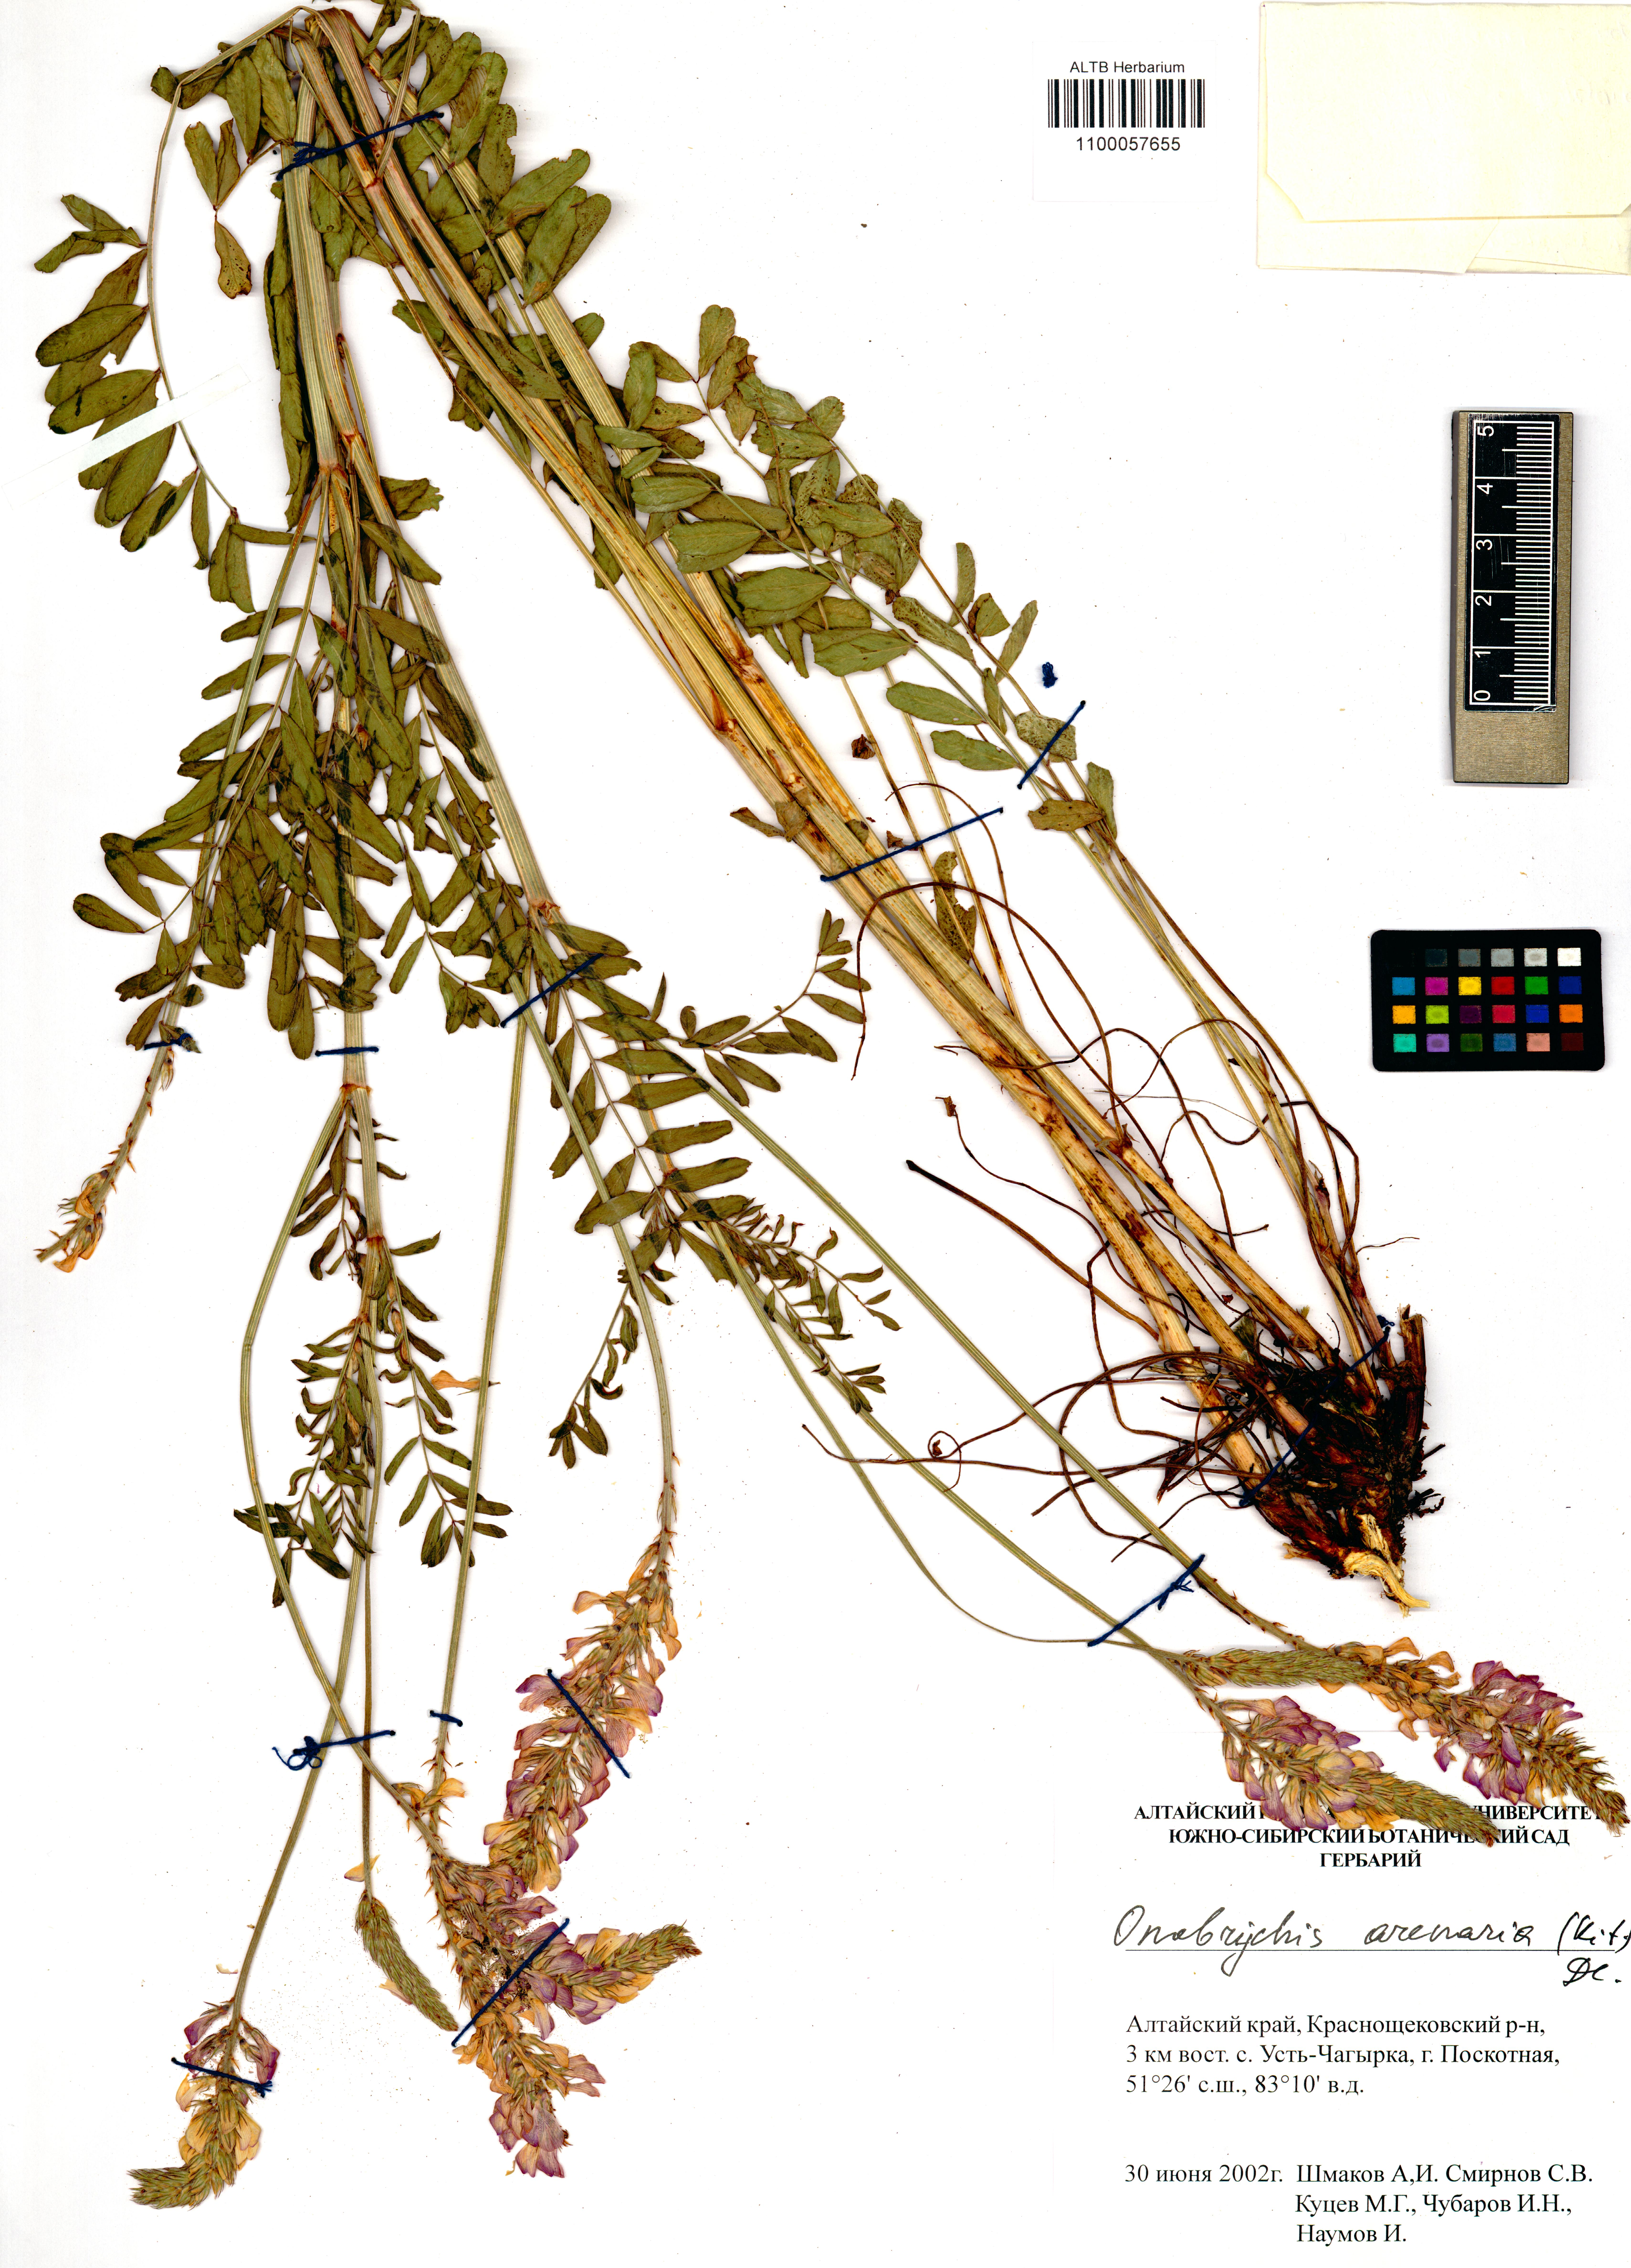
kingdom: Plantae
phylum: Tracheophyta
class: Magnoliopsida
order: Fabales
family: Fabaceae
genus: Onobrychis
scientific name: Onobrychis arenaria
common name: Sand esparcet
